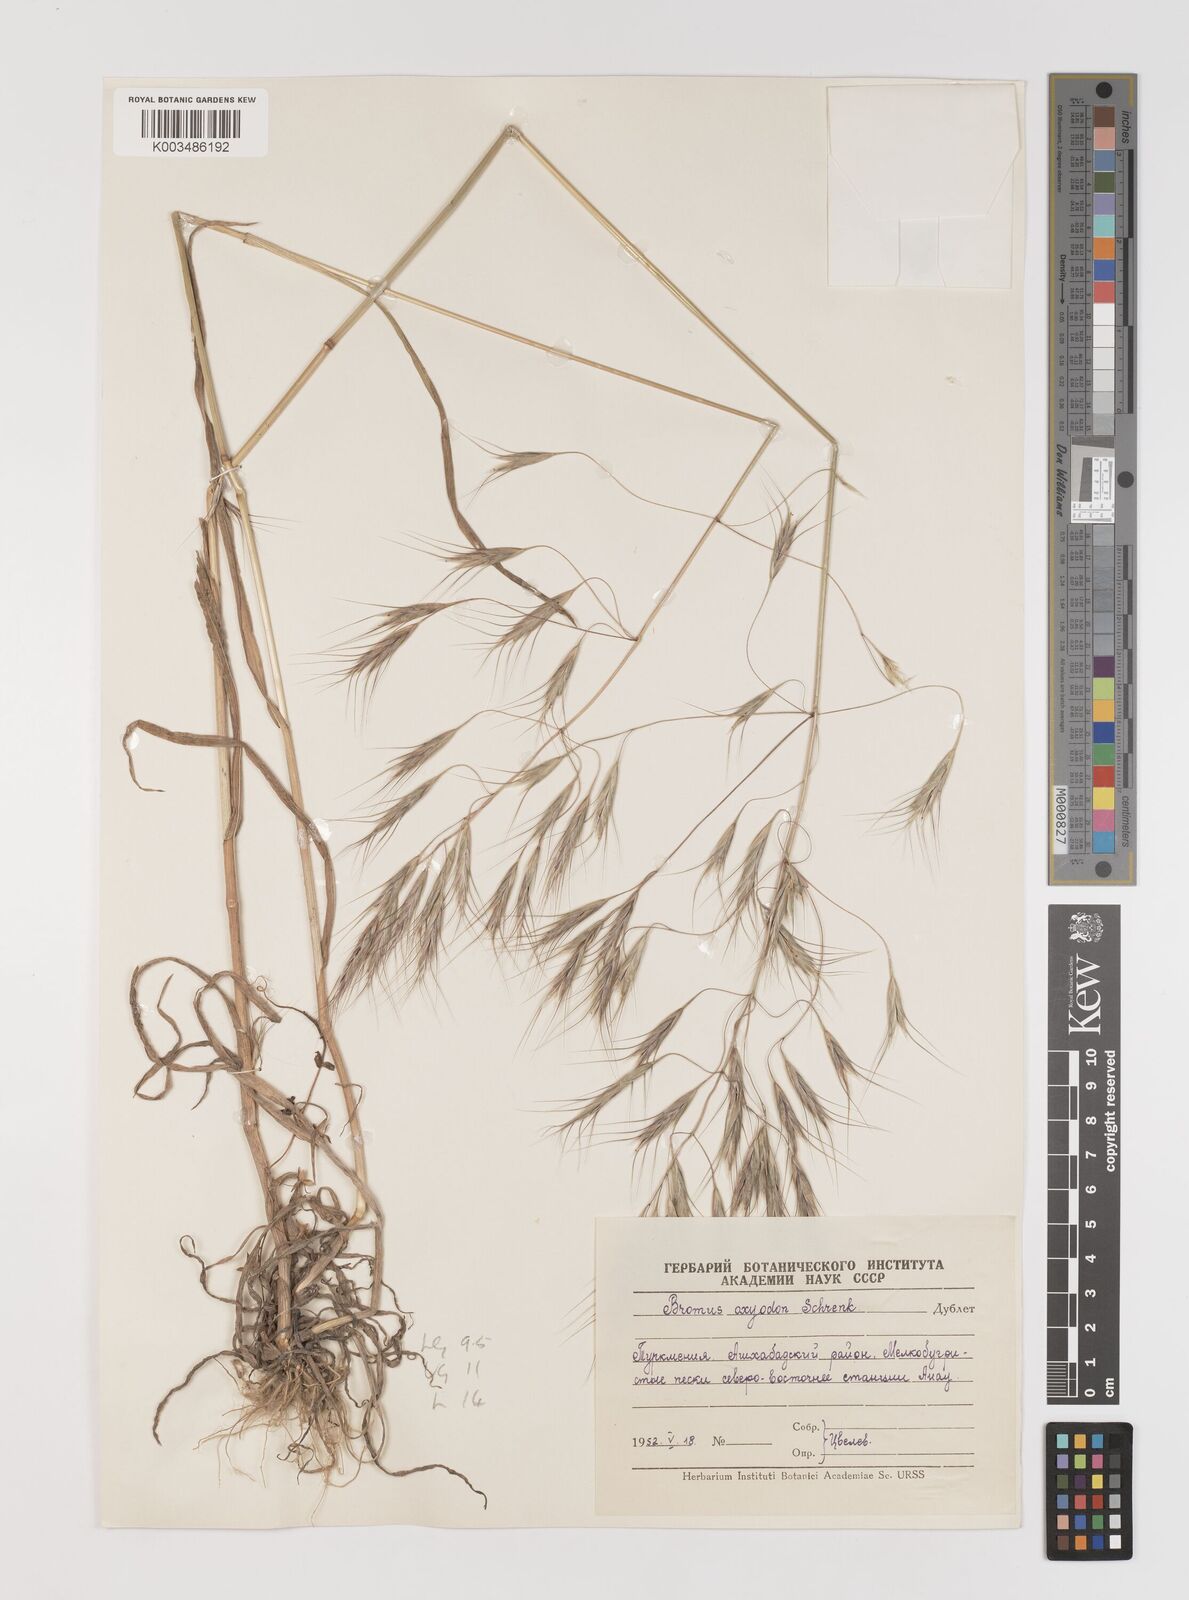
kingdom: Plantae
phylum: Tracheophyta
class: Liliopsida
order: Poales
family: Poaceae
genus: Bromus
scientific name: Bromus oxyodon
